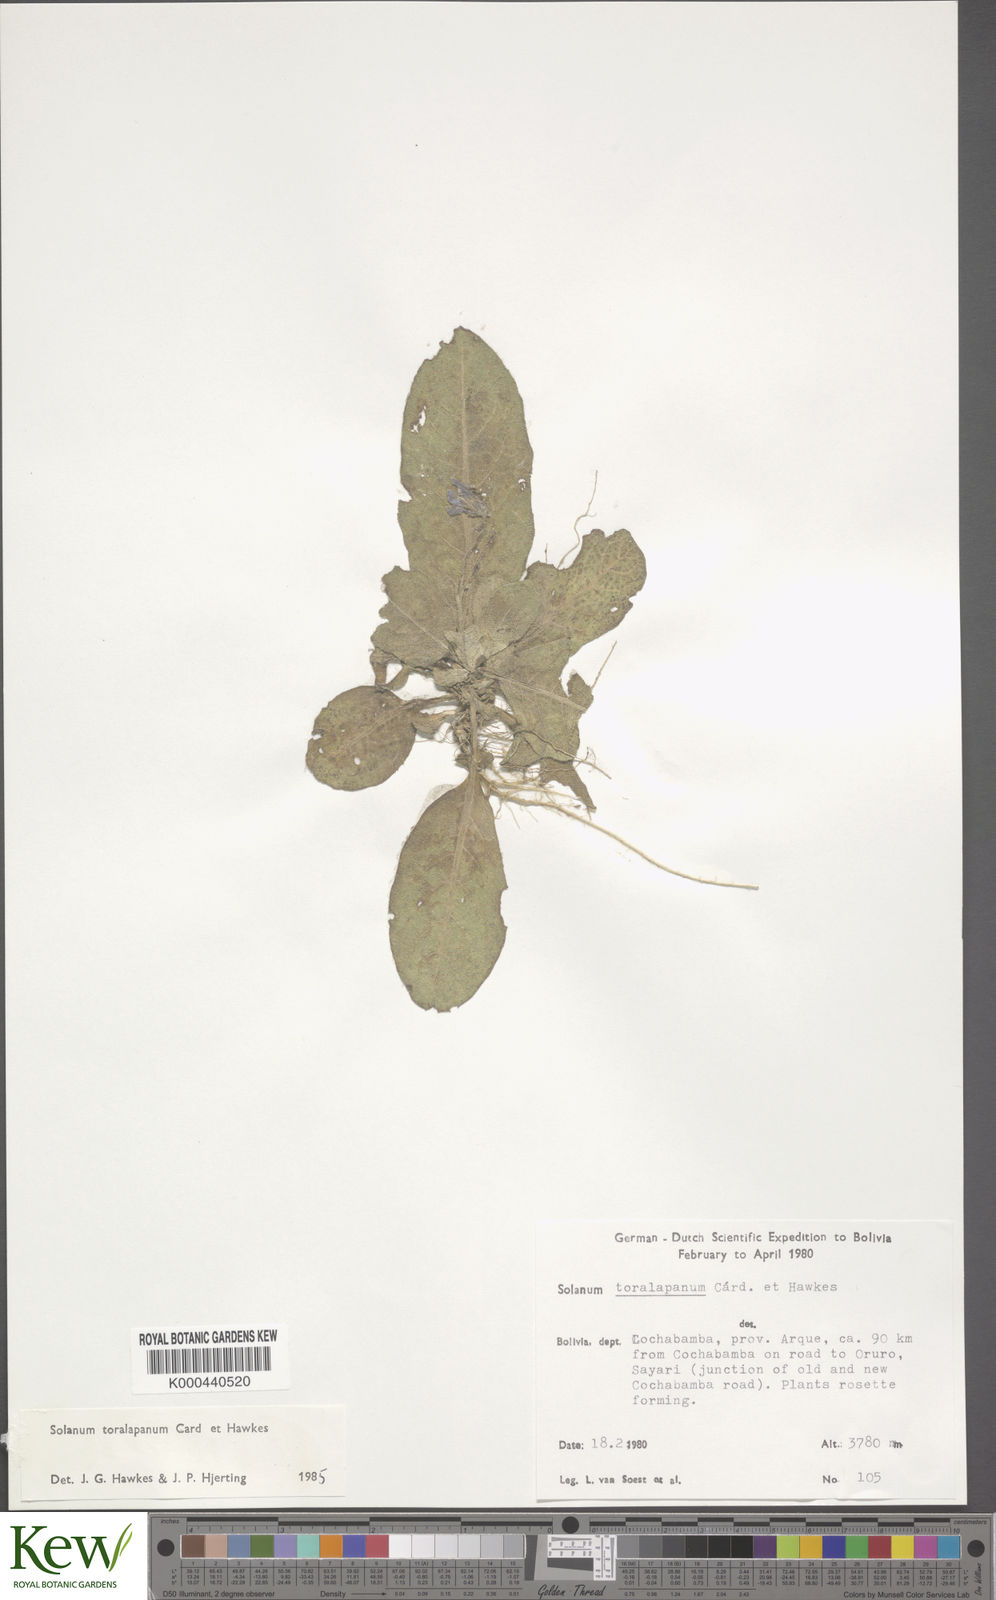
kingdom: Plantae
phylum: Tracheophyta
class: Magnoliopsida
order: Solanales
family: Solanaceae
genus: Solanum
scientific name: Solanum boliviense
